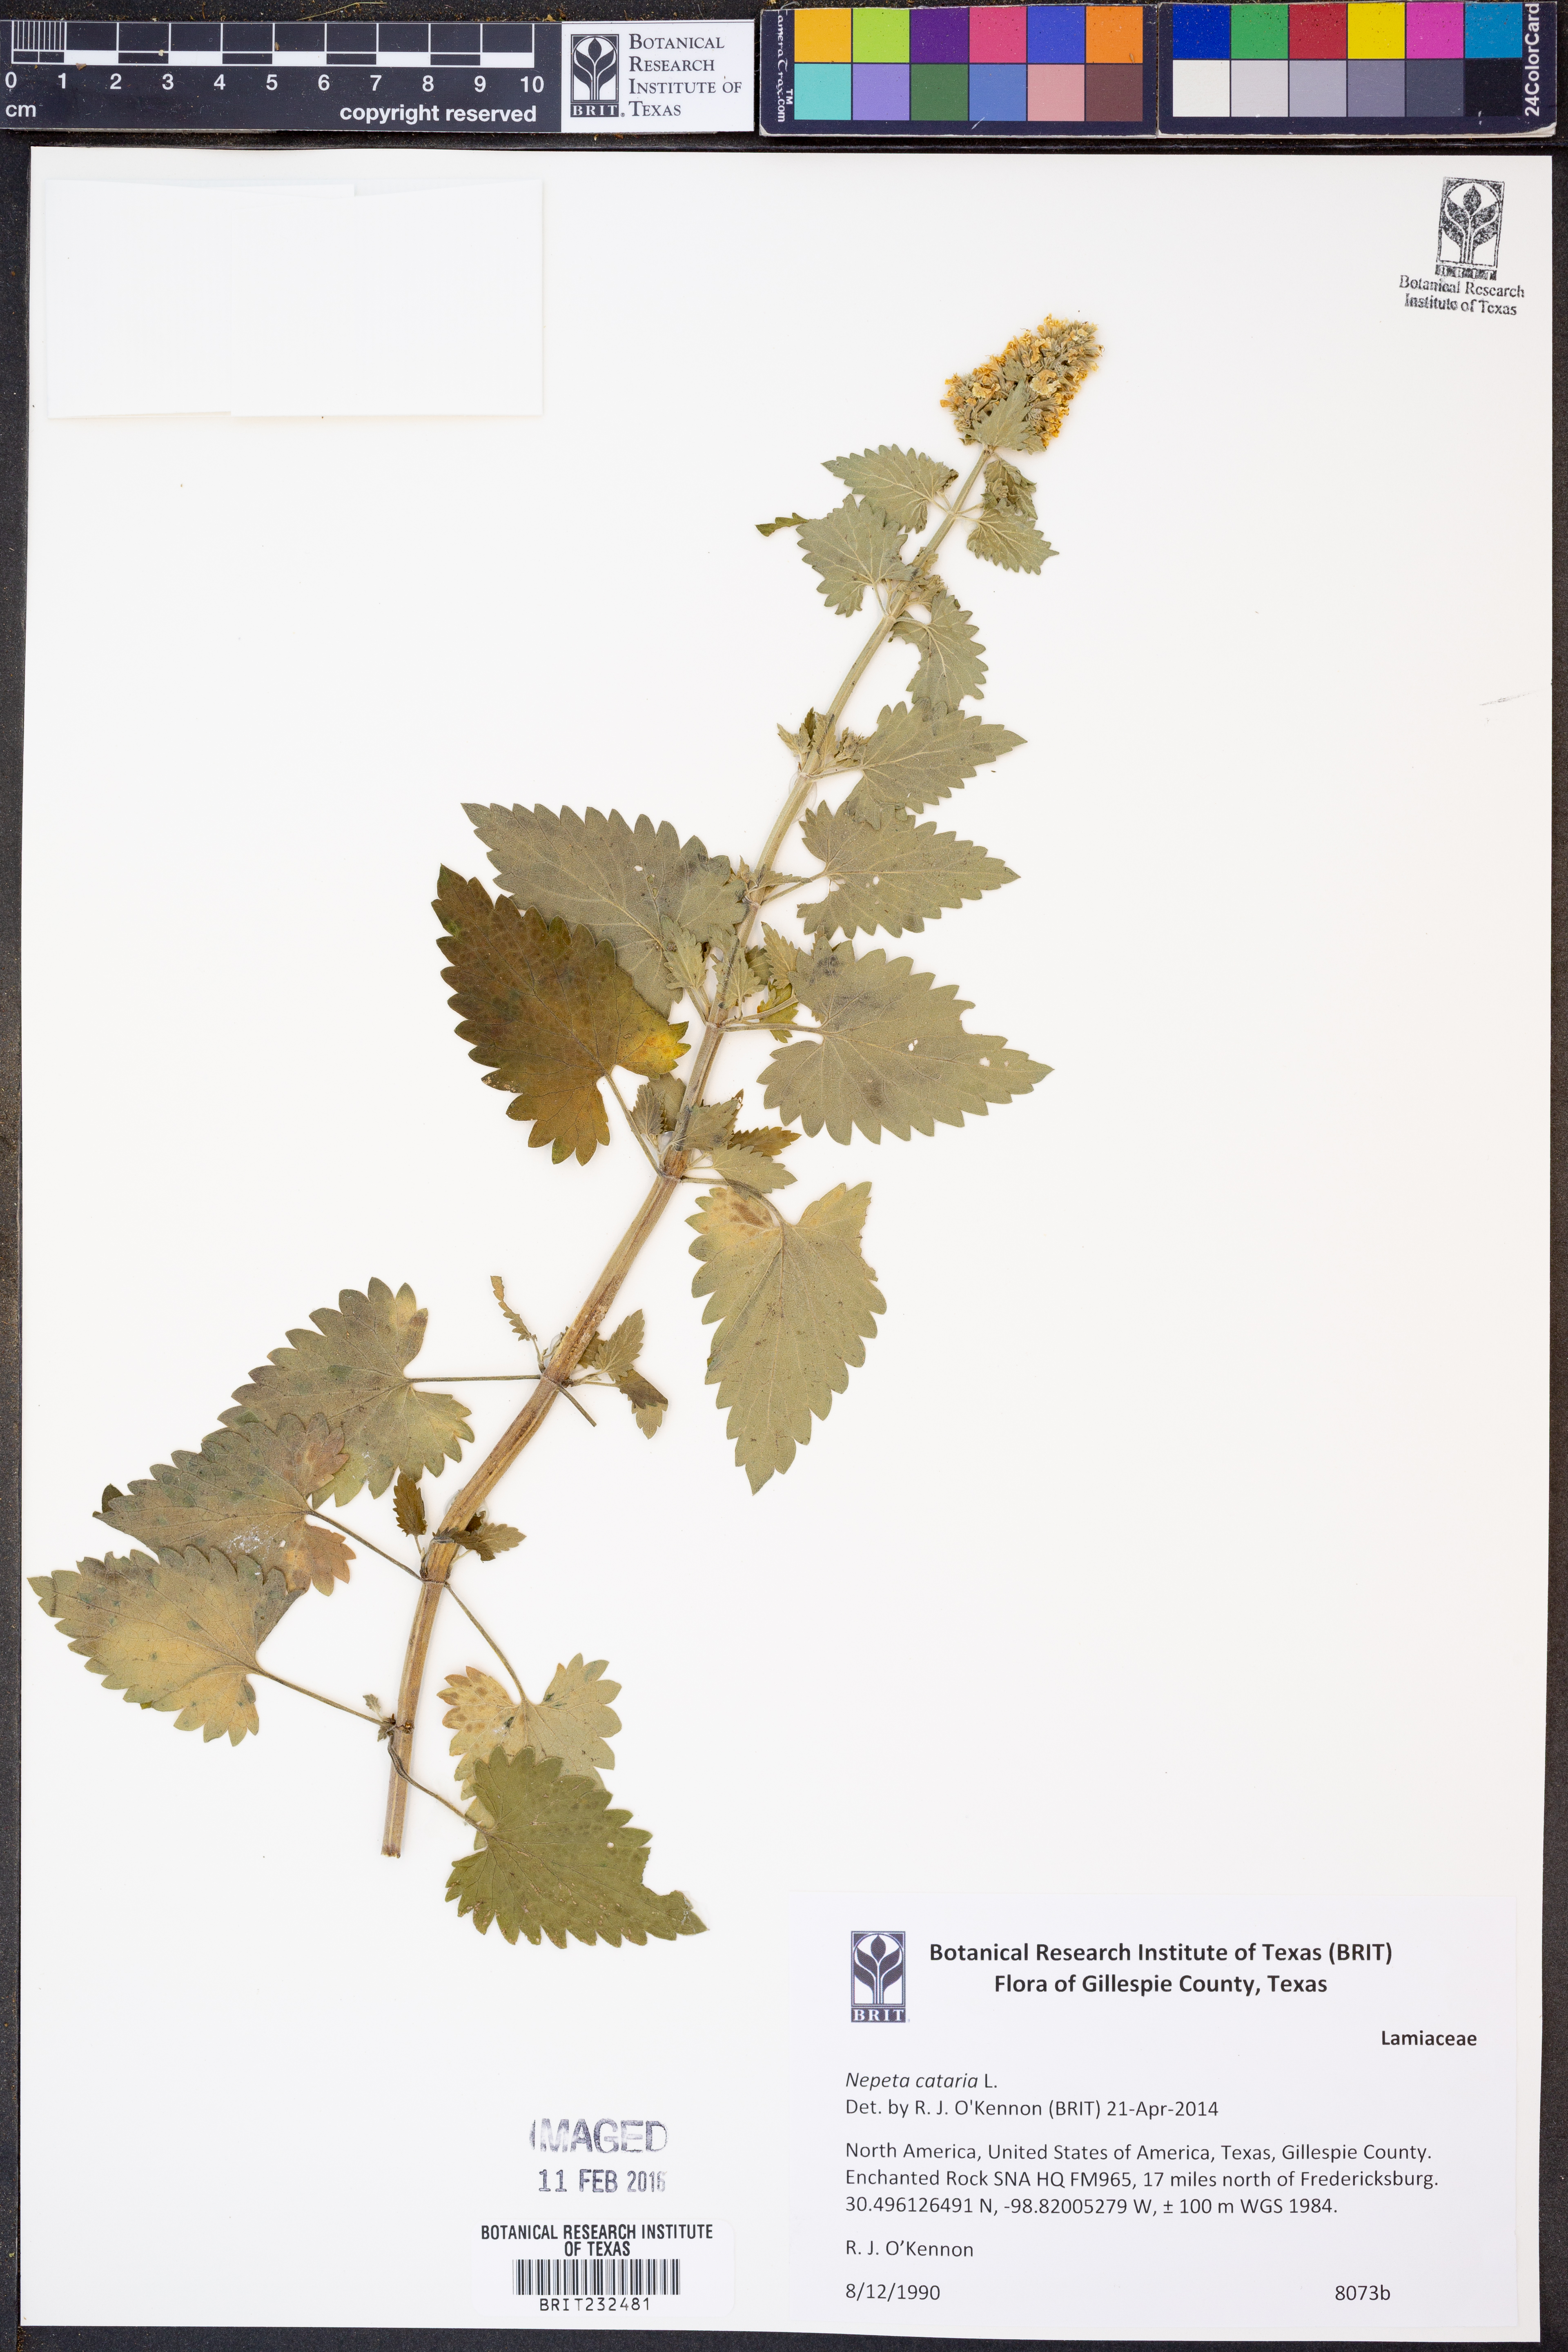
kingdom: Plantae
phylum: Tracheophyta
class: Magnoliopsida
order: Lamiales
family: Lamiaceae
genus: Nepeta
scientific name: Nepeta cataria
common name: Catnip
